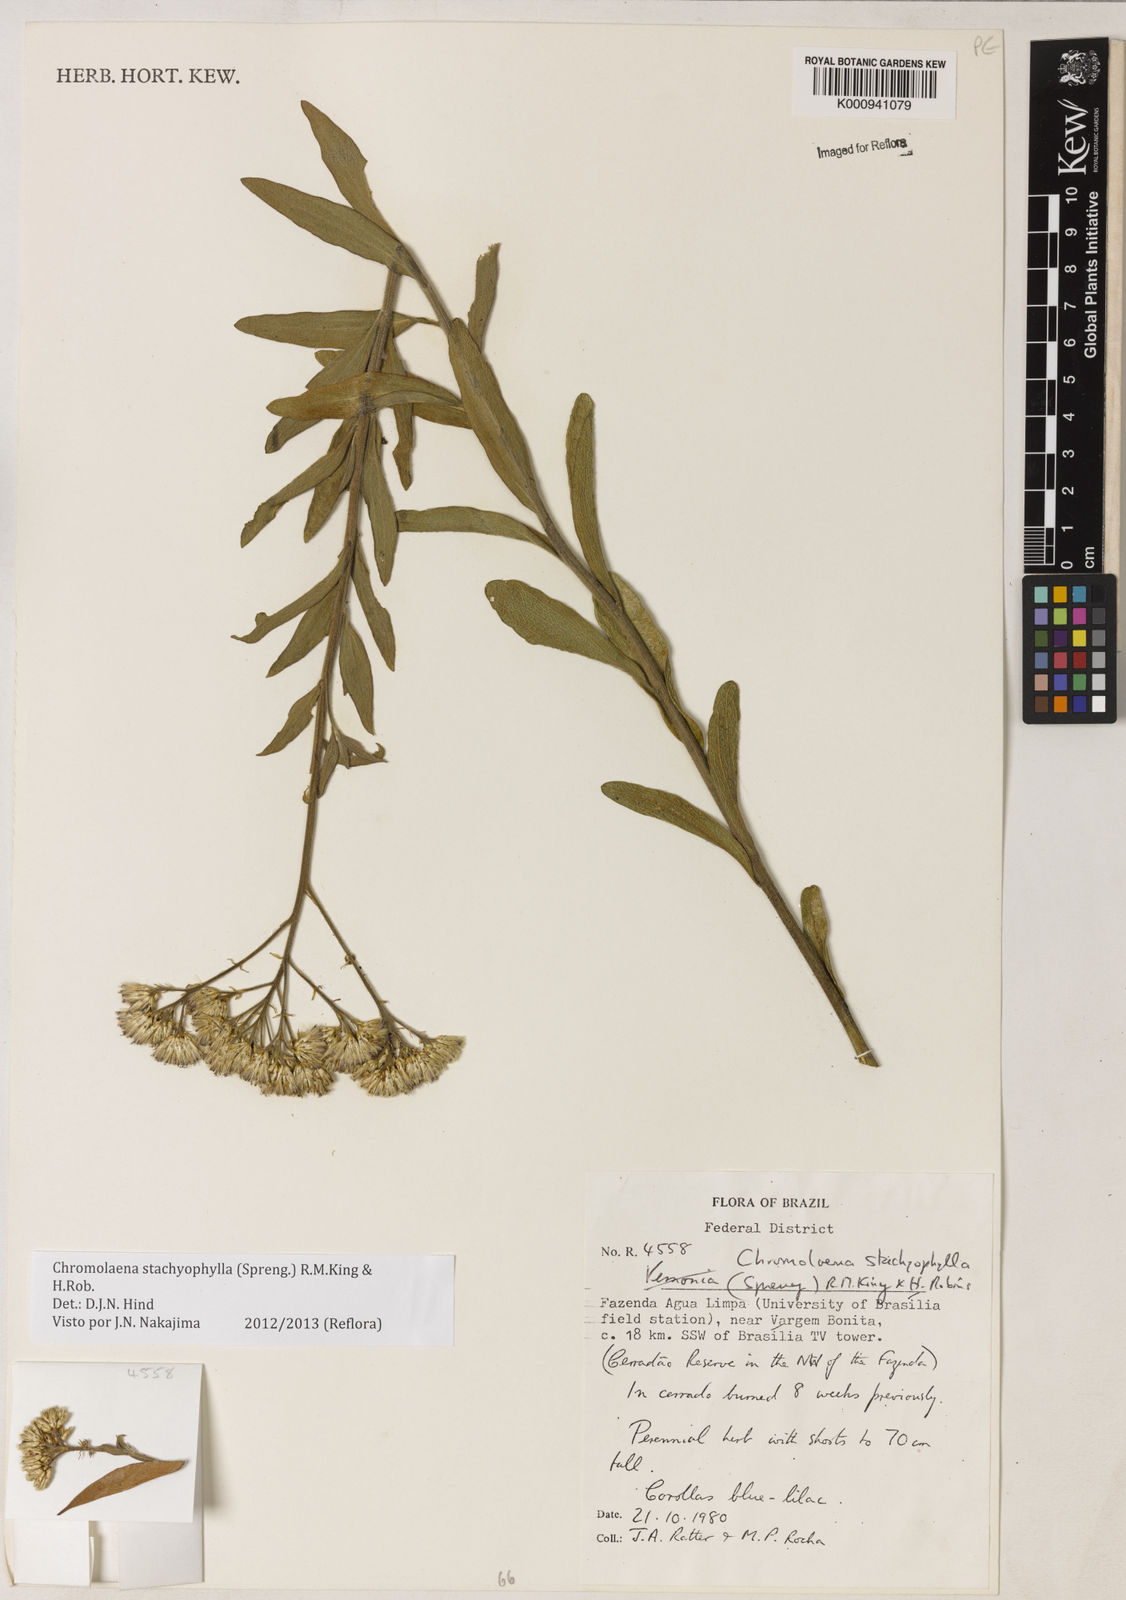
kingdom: Plantae
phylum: Tracheophyta
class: Magnoliopsida
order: Asterales
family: Asteraceae
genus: Chromolaena
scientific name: Chromolaena stachyophylla
